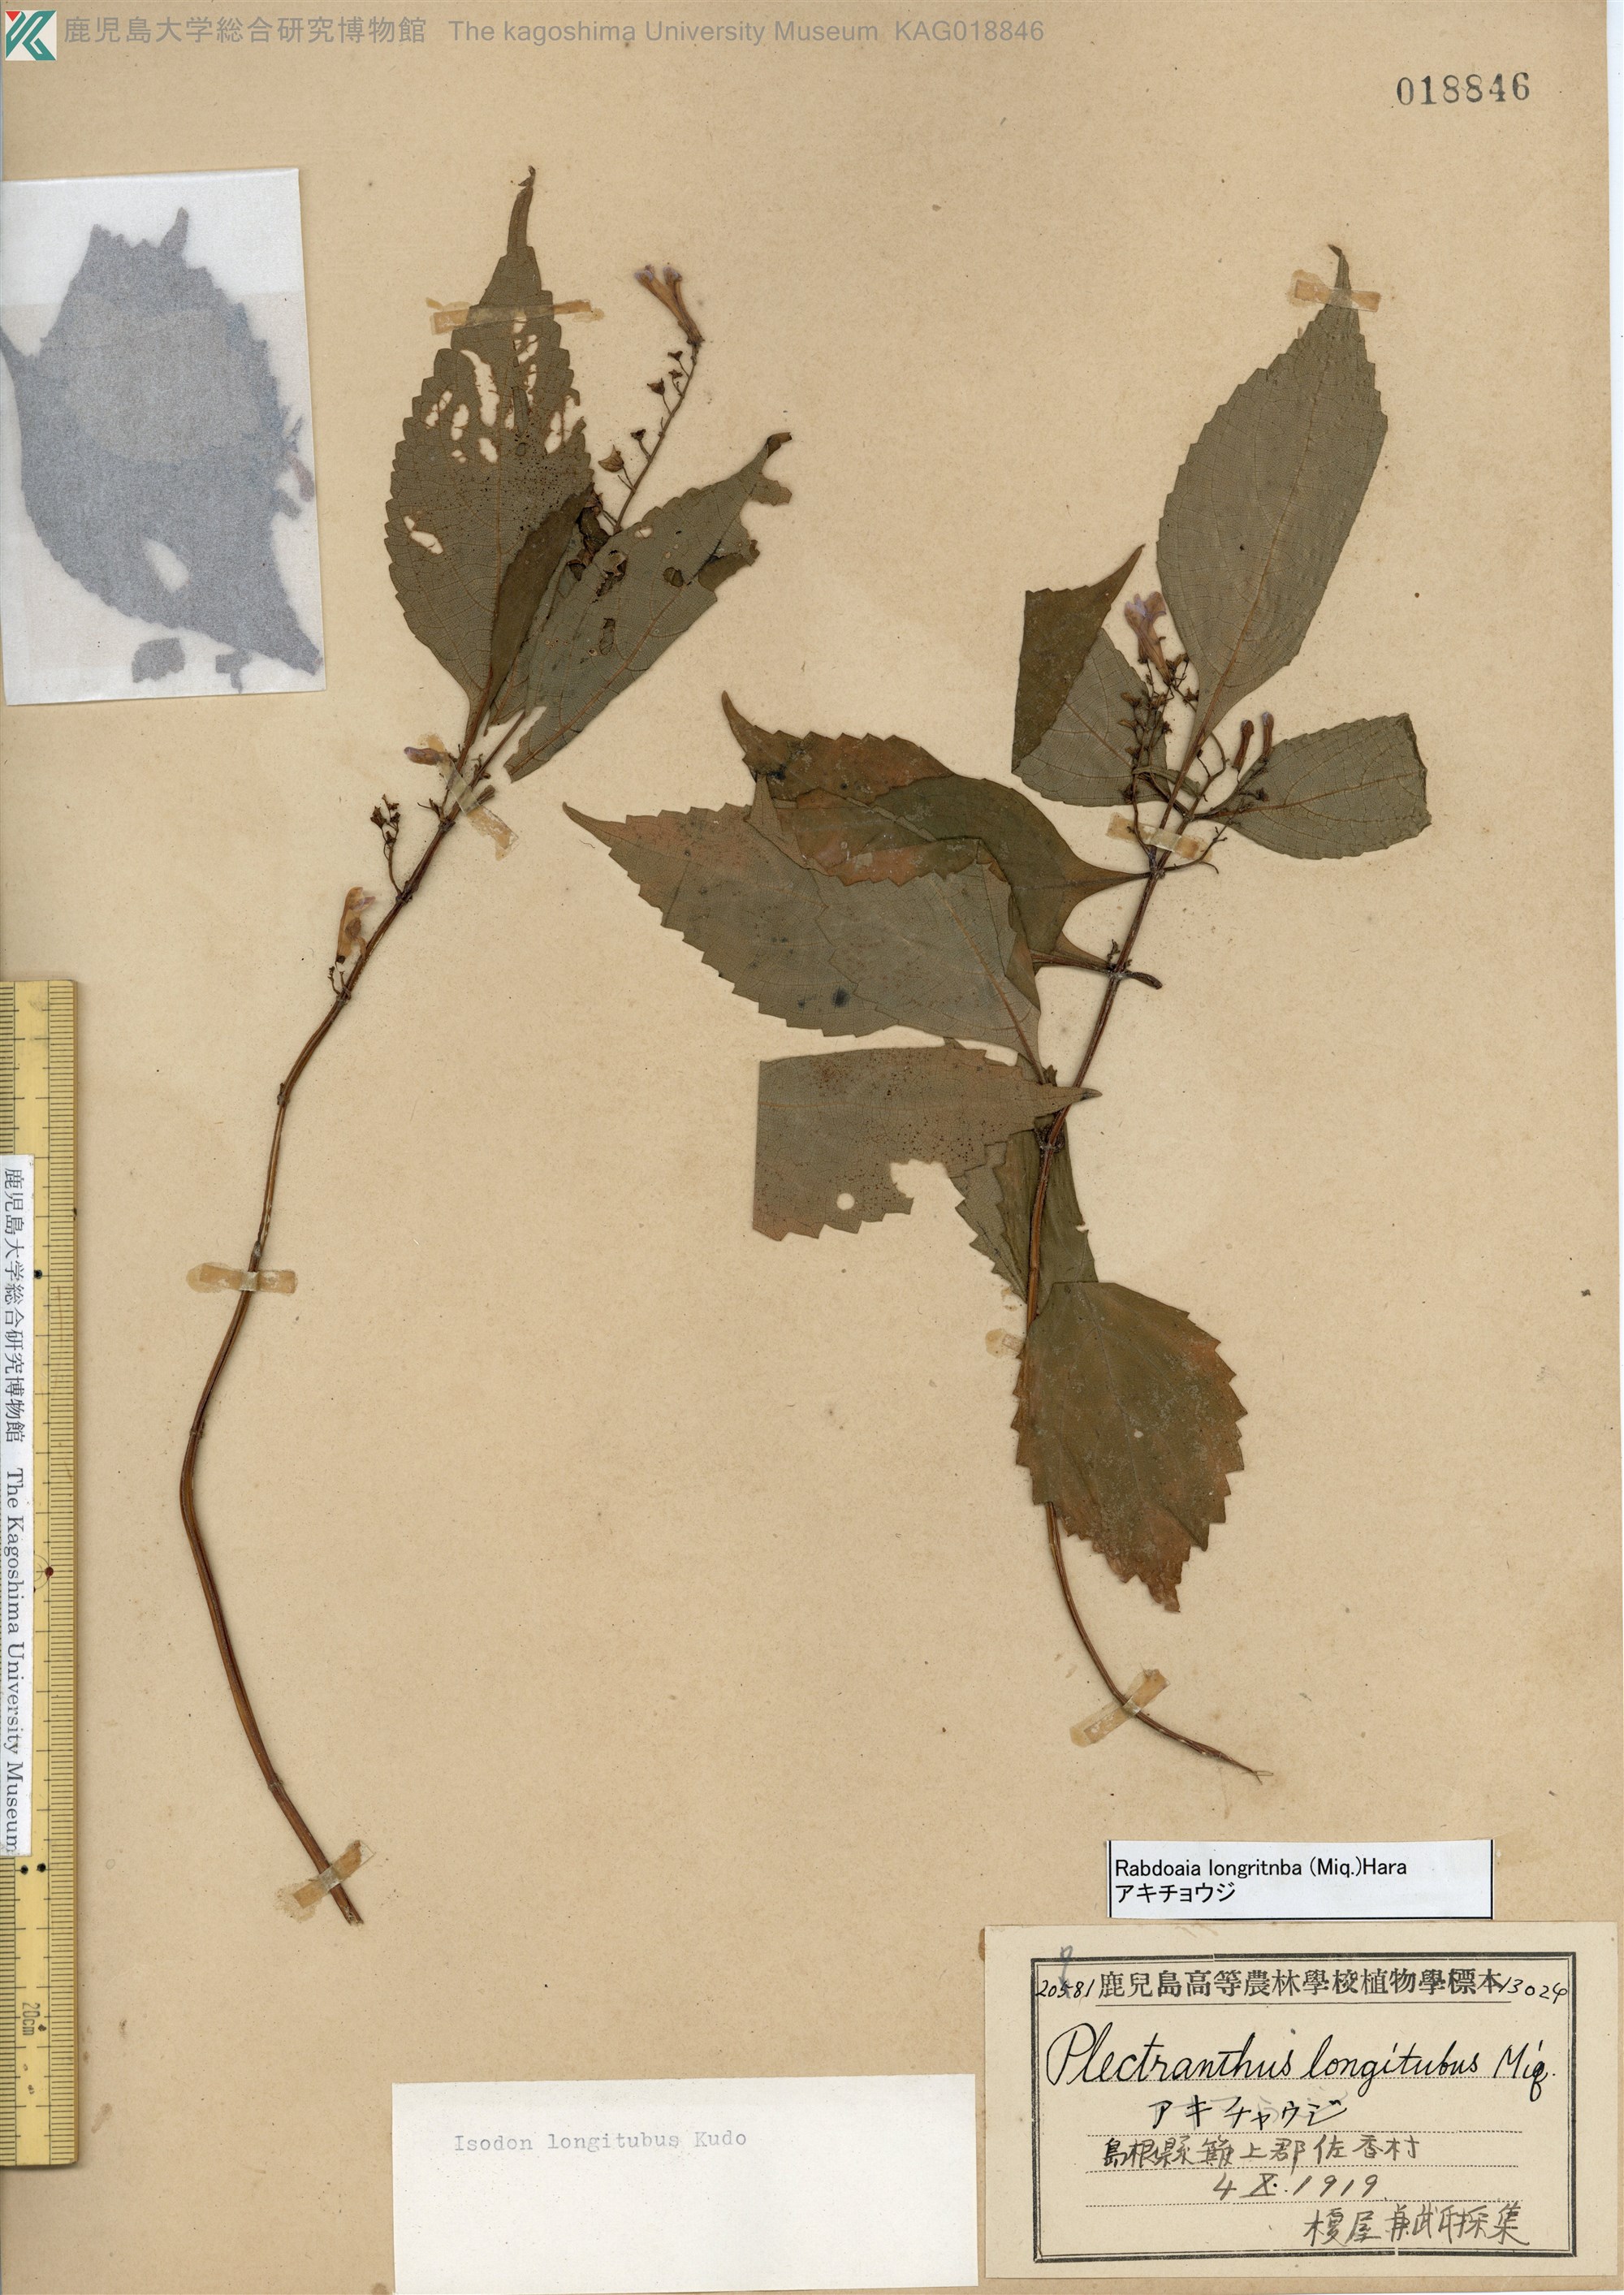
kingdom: Plantae
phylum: Tracheophyta
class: Magnoliopsida
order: Lamiales
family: Lamiaceae
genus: Isodon
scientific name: Isodon longitubus
